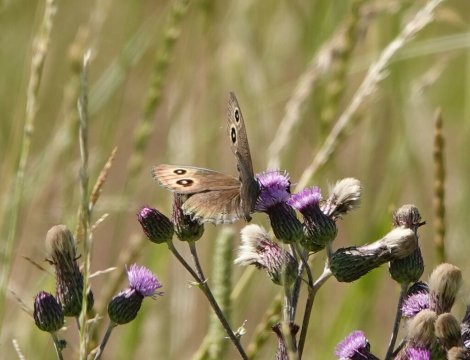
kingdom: Animalia
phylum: Arthropoda
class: Insecta
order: Lepidoptera
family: Nymphalidae
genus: Cercyonis
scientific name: Cercyonis pegala
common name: Common Wood-Nymph
